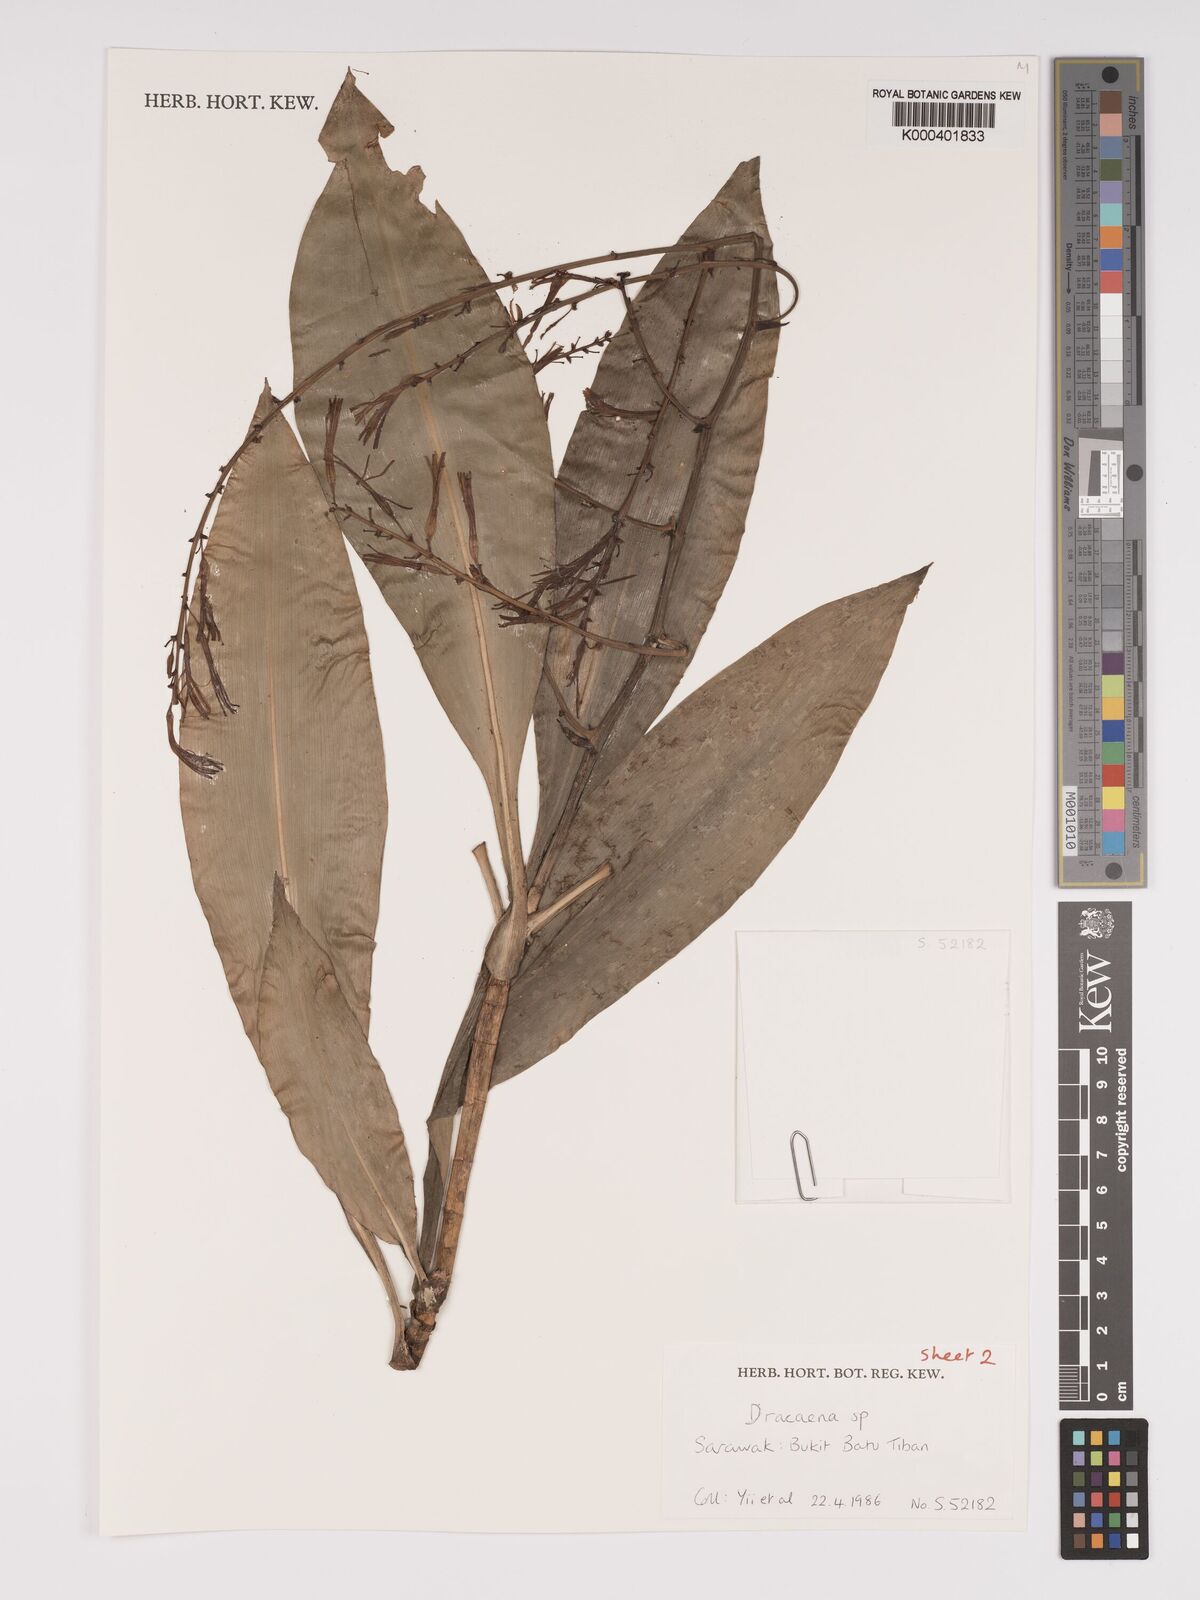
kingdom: Plantae
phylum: Tracheophyta
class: Liliopsida
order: Asparagales
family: Asparagaceae
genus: Dracaena
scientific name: Dracaena
